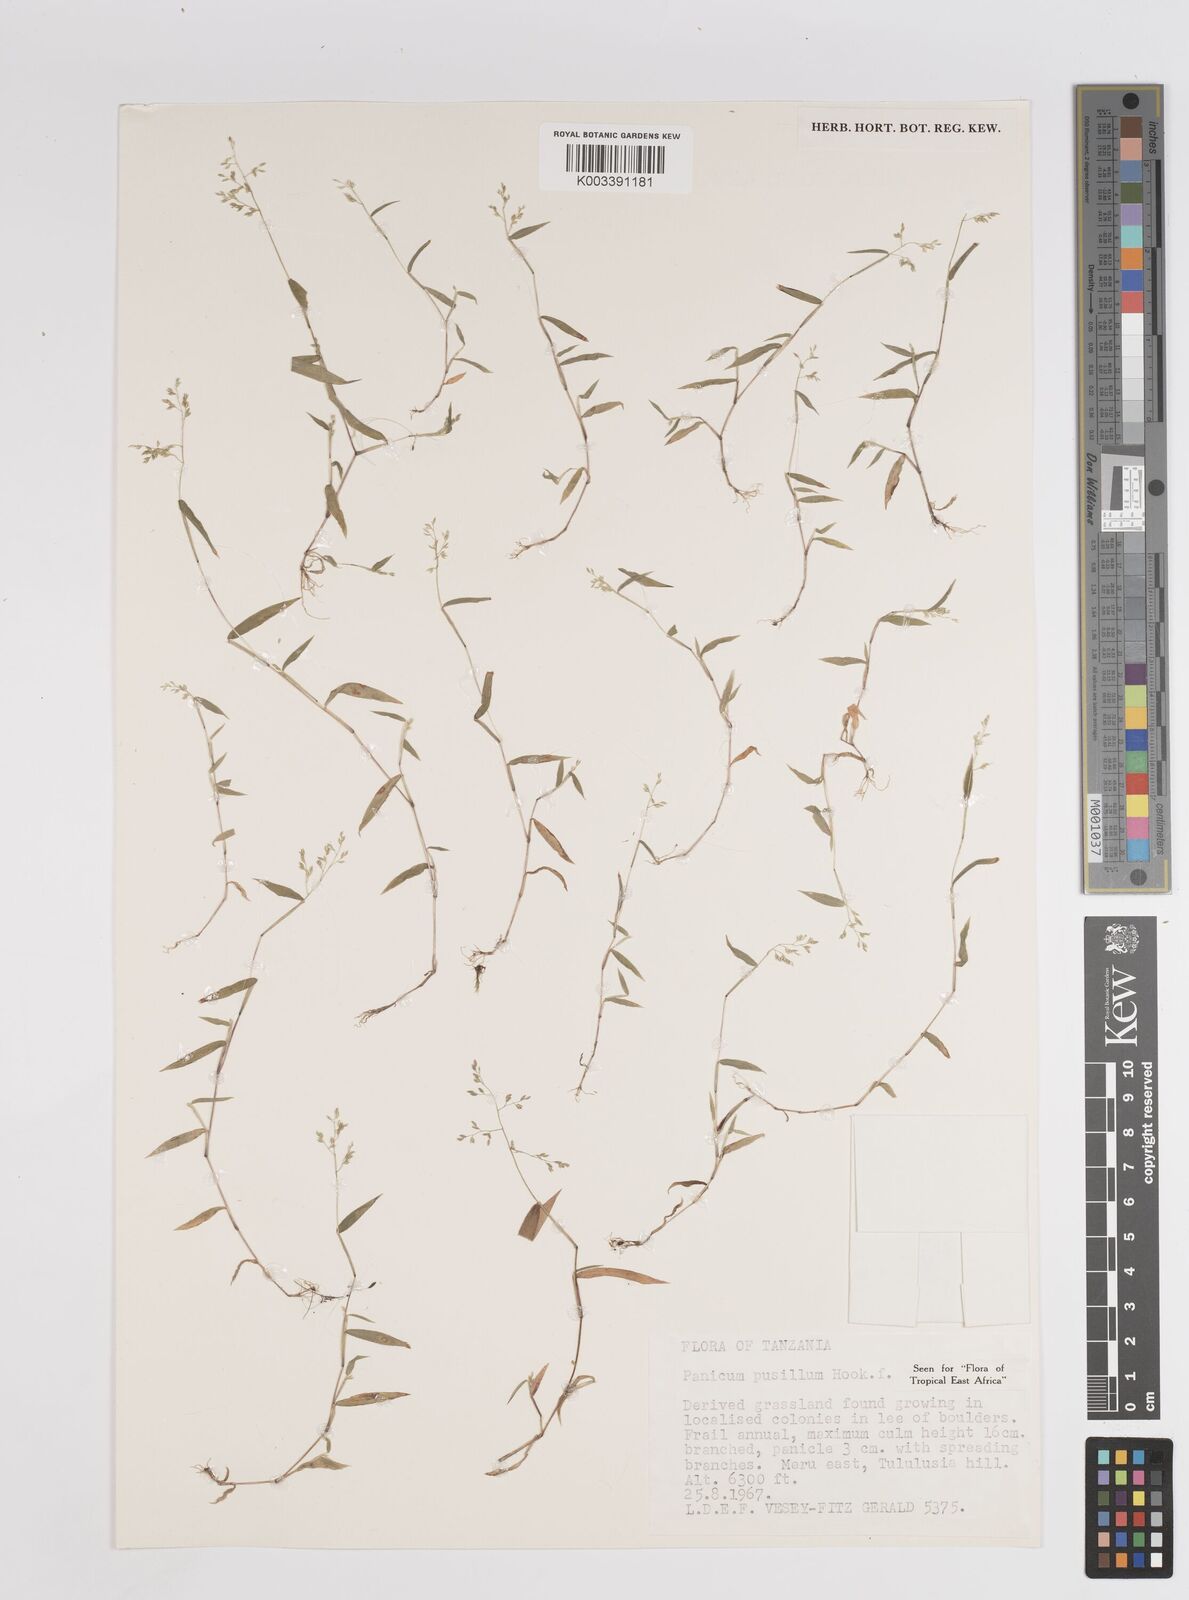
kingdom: Plantae
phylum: Tracheophyta
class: Liliopsida
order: Poales
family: Poaceae
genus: Panicum
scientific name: Panicum pusillum
